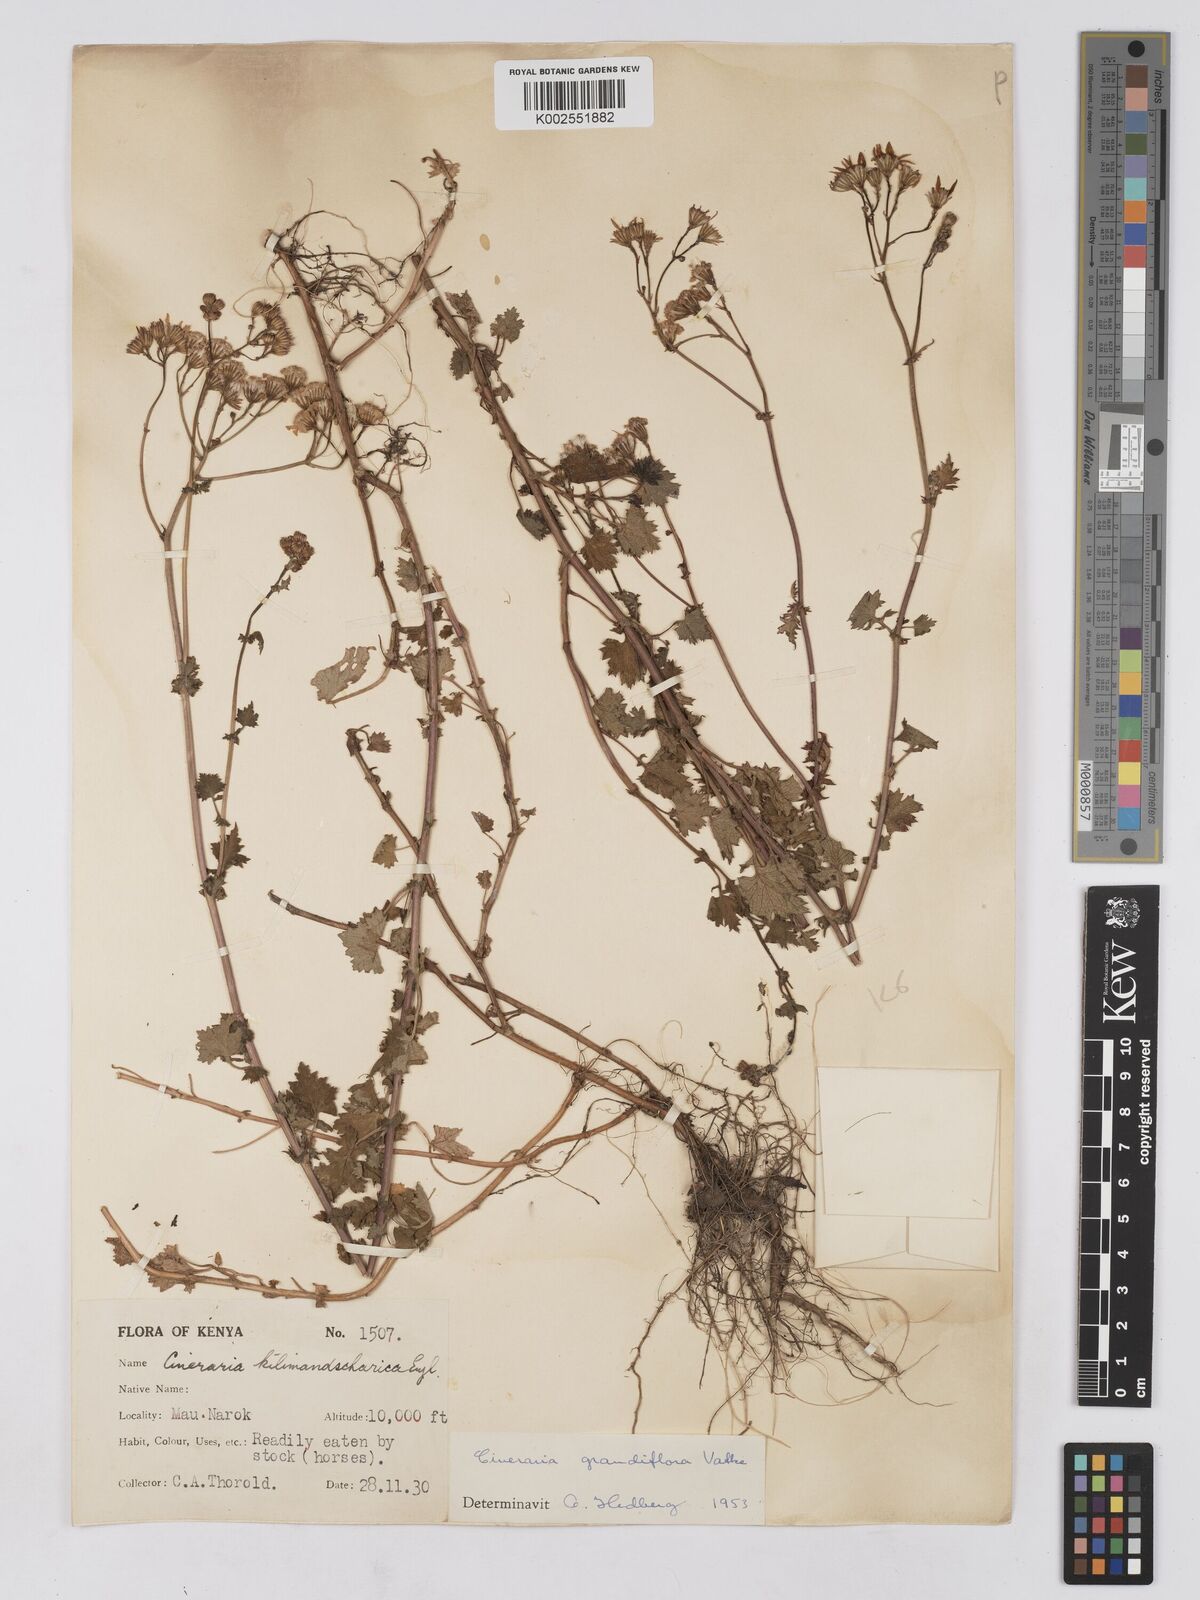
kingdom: Plantae
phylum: Tracheophyta
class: Magnoliopsida
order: Asterales
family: Asteraceae
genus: Cineraria
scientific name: Cineraria deltoidea
